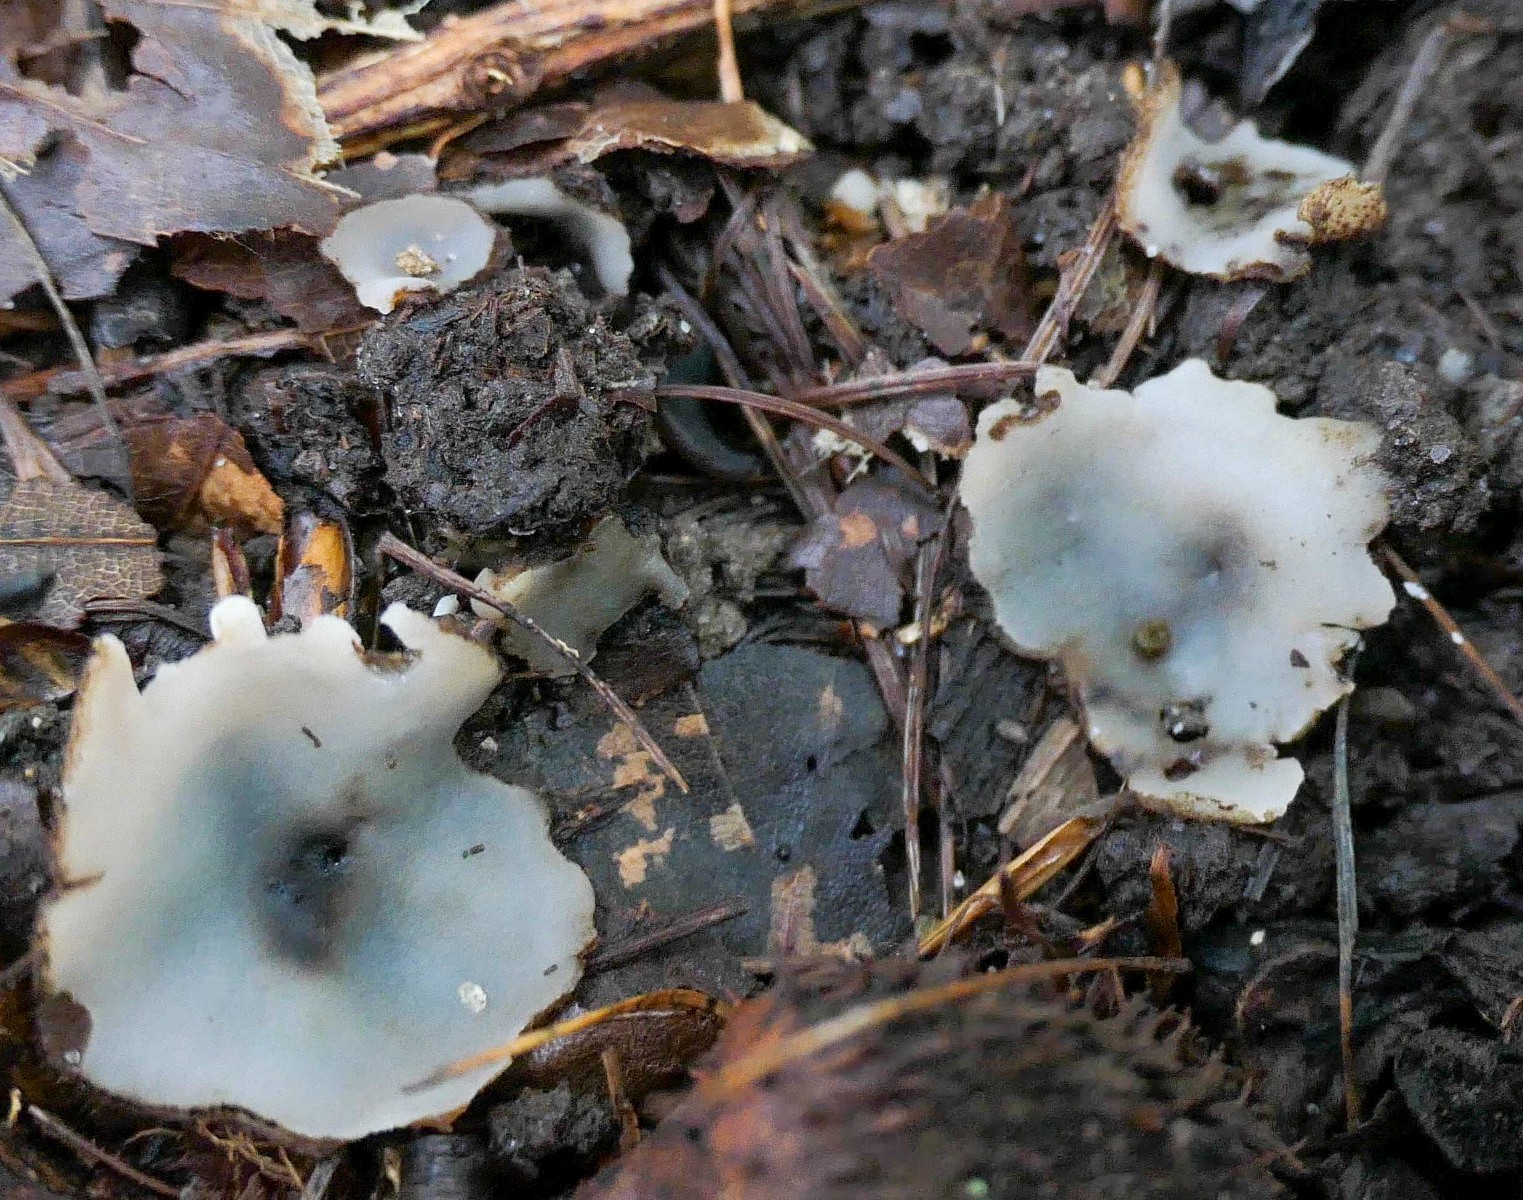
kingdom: Fungi
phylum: Ascomycota
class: Pezizomycetes
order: Pezizales
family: Pyronemataceae
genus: Humaria
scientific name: Humaria hemisphaerica
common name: halvkugleformet børstebæger
